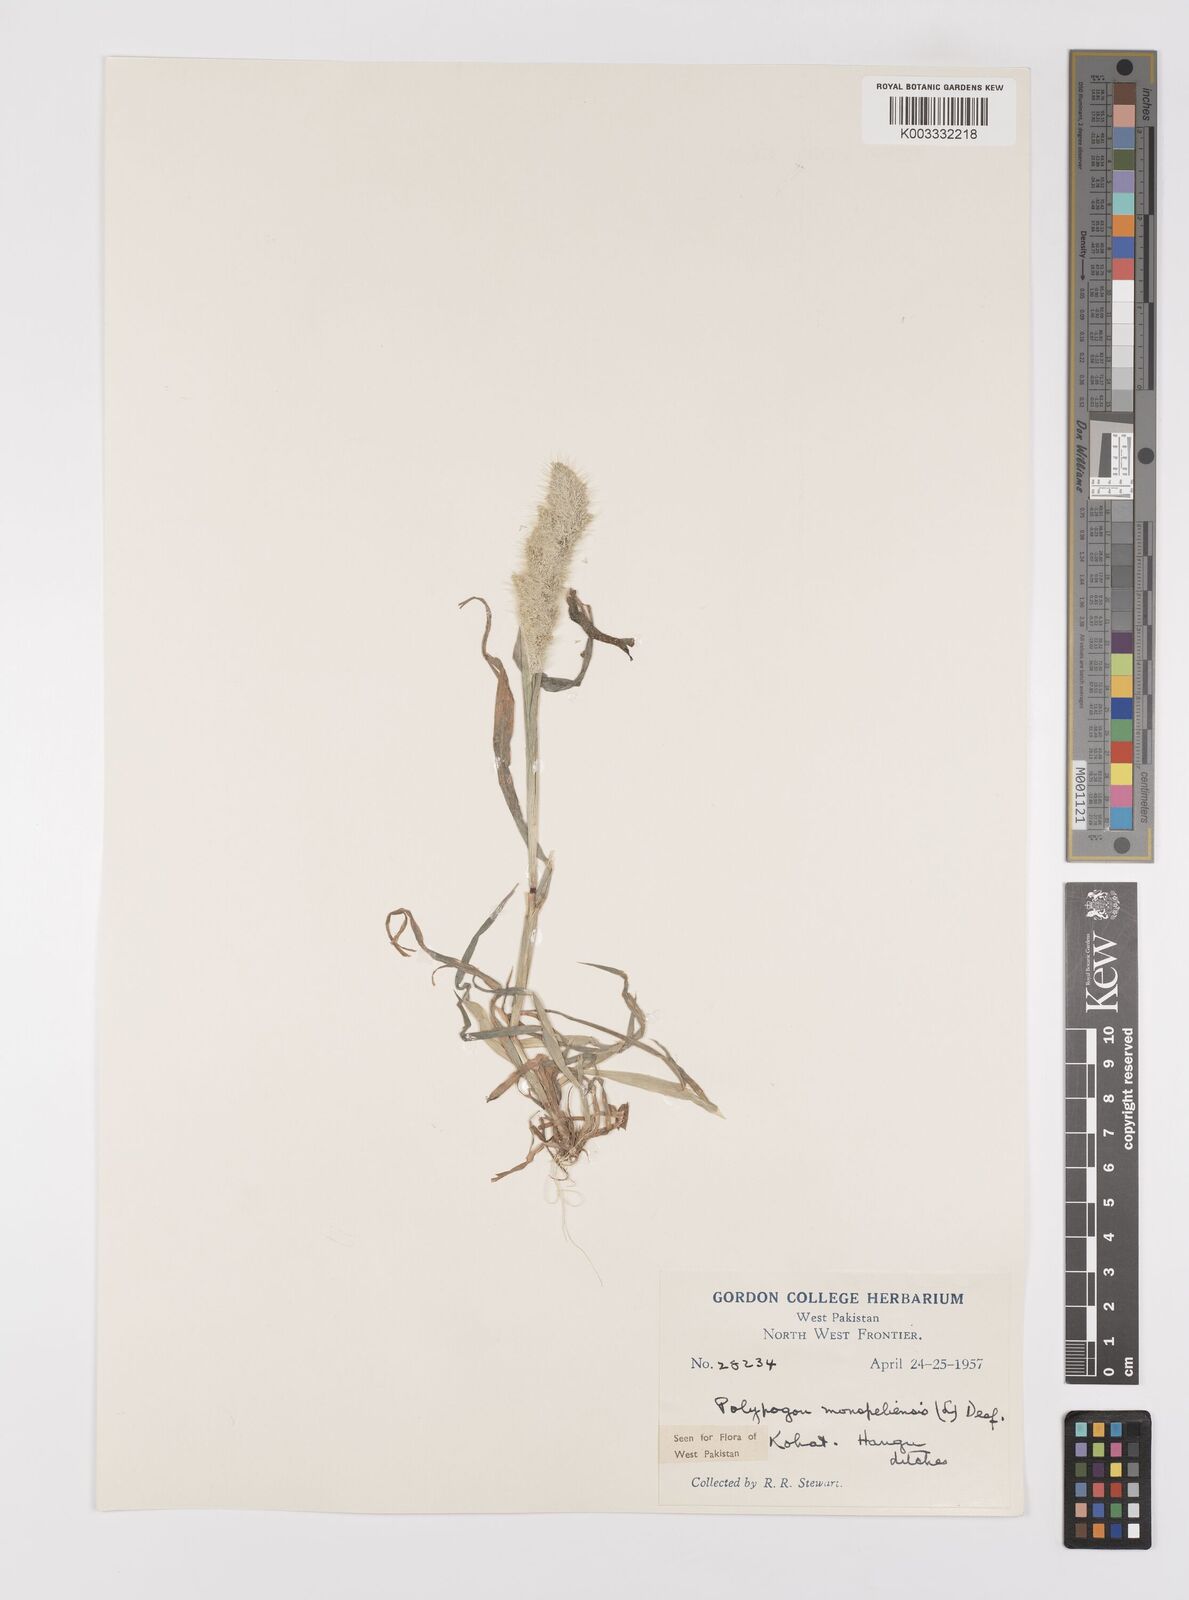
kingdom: Plantae
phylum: Tracheophyta
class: Liliopsida
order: Poales
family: Poaceae
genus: Polypogon
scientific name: Polypogon monspeliensis
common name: Annual rabbitsfoot grass
